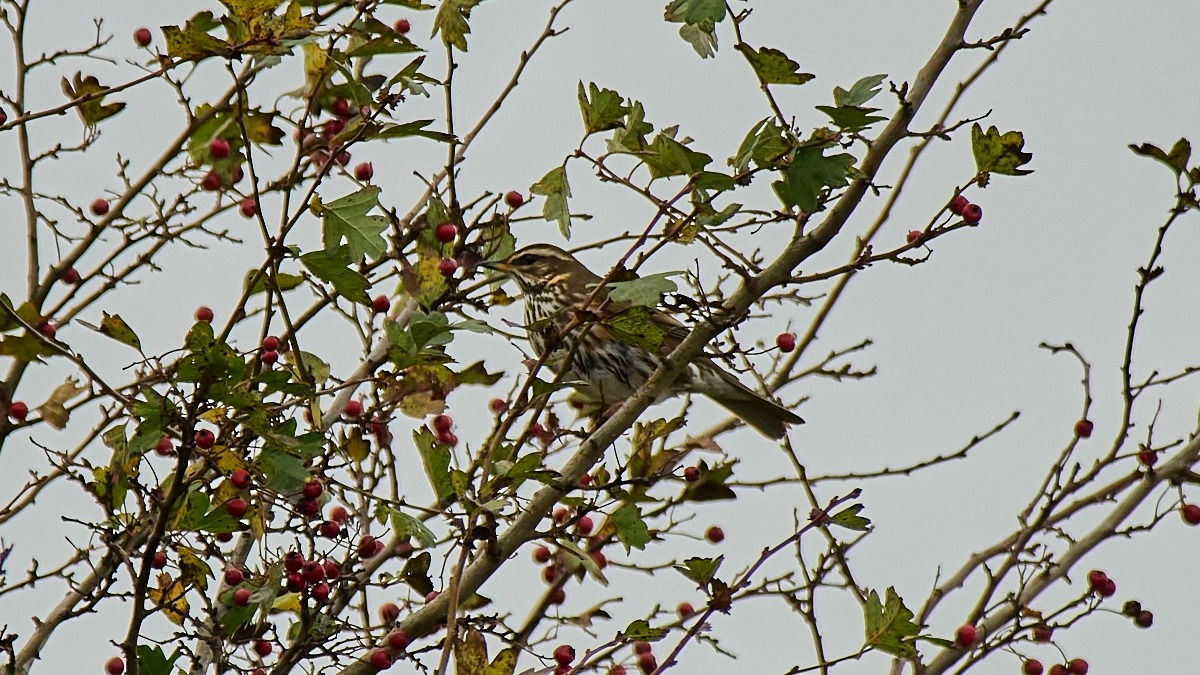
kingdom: Animalia
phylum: Chordata
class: Aves
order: Passeriformes
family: Turdidae
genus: Turdus
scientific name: Turdus iliacus
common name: Vindrossel
